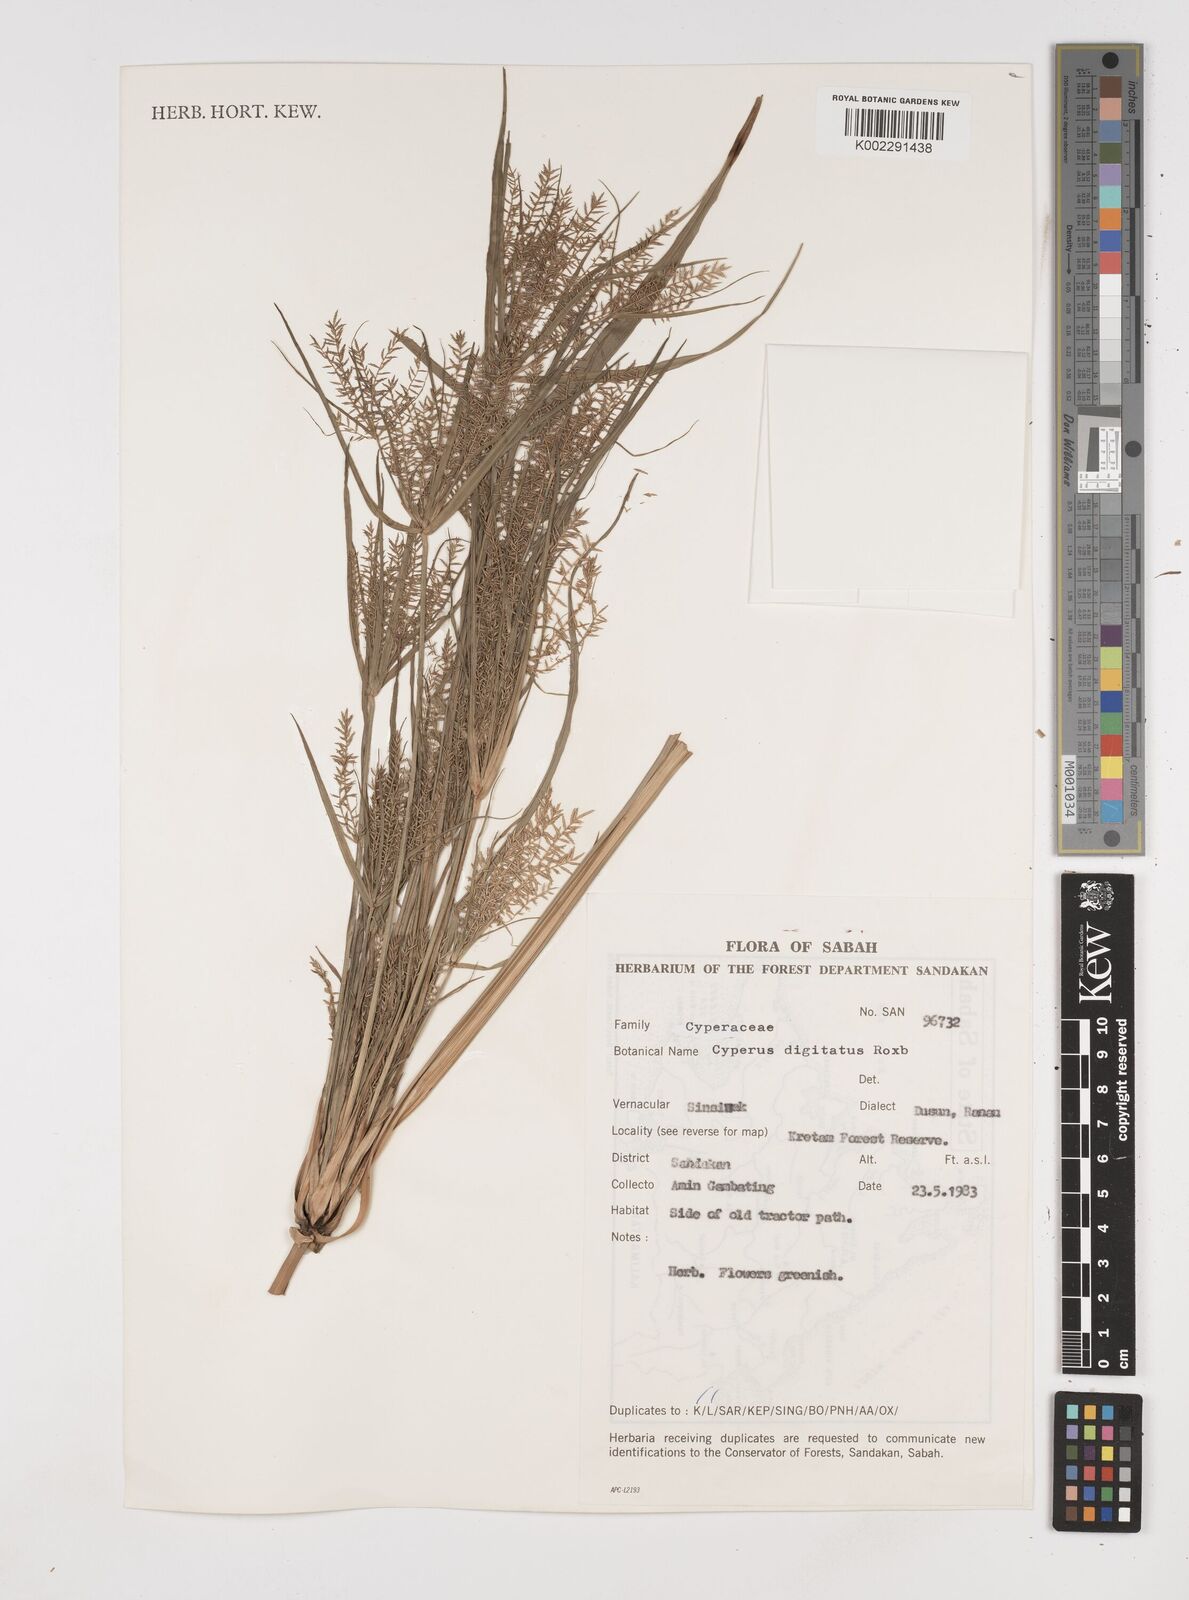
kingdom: Plantae
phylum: Tracheophyta
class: Liliopsida
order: Poales
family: Cyperaceae
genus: Cyperus
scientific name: Cyperus digitatus
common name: Finger flatsedge
